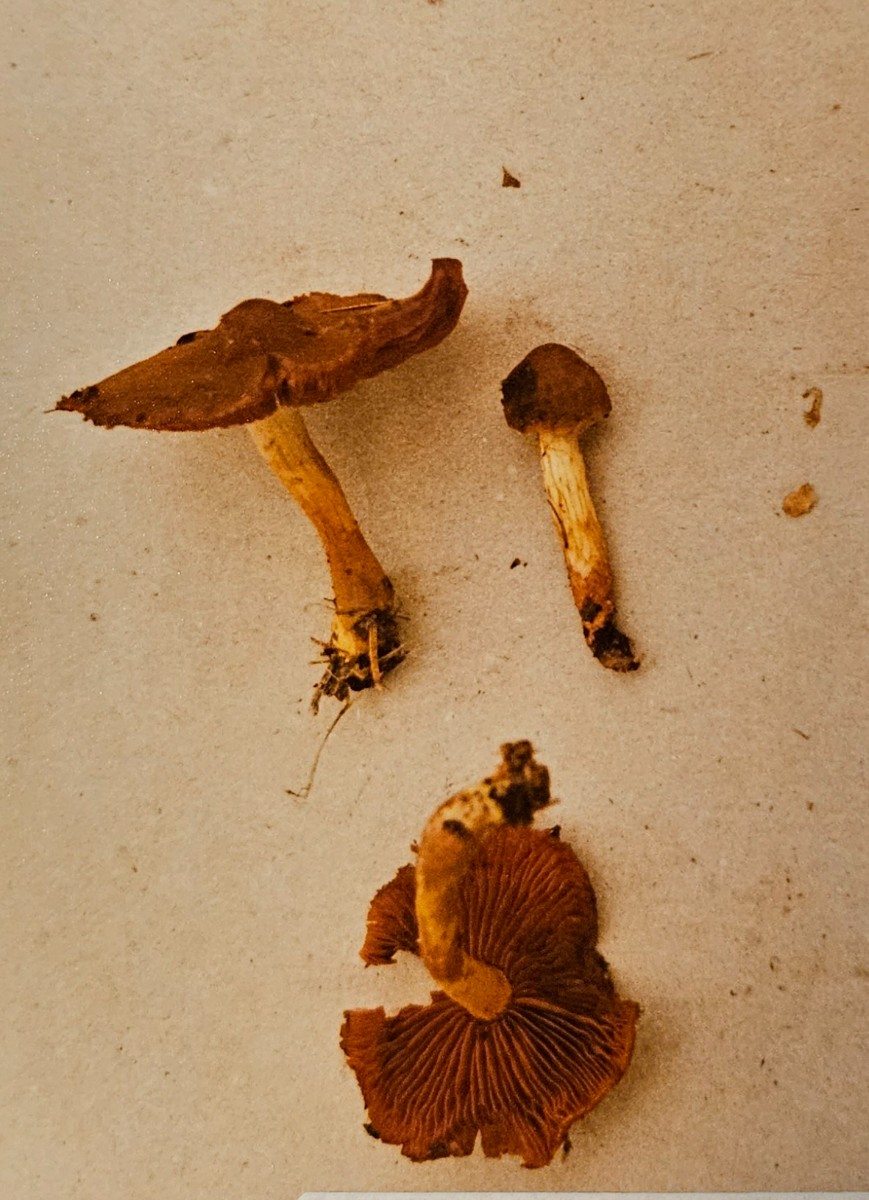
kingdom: Fungi
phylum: Basidiomycota
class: Agaricomycetes
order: Agaricales
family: Cortinariaceae
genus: Cortinarius
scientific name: Cortinarius
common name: cinnoberbladet slørhat
